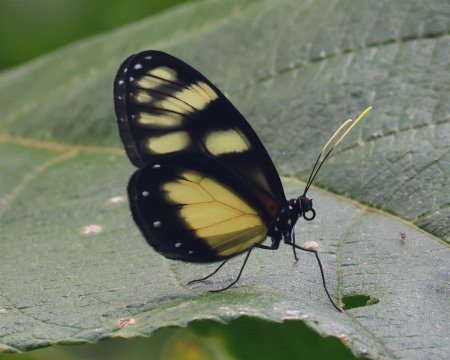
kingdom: Animalia
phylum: Arthropoda
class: Insecta
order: Lepidoptera
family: Nymphalidae
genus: Godyris
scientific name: Godyris zavaleta
